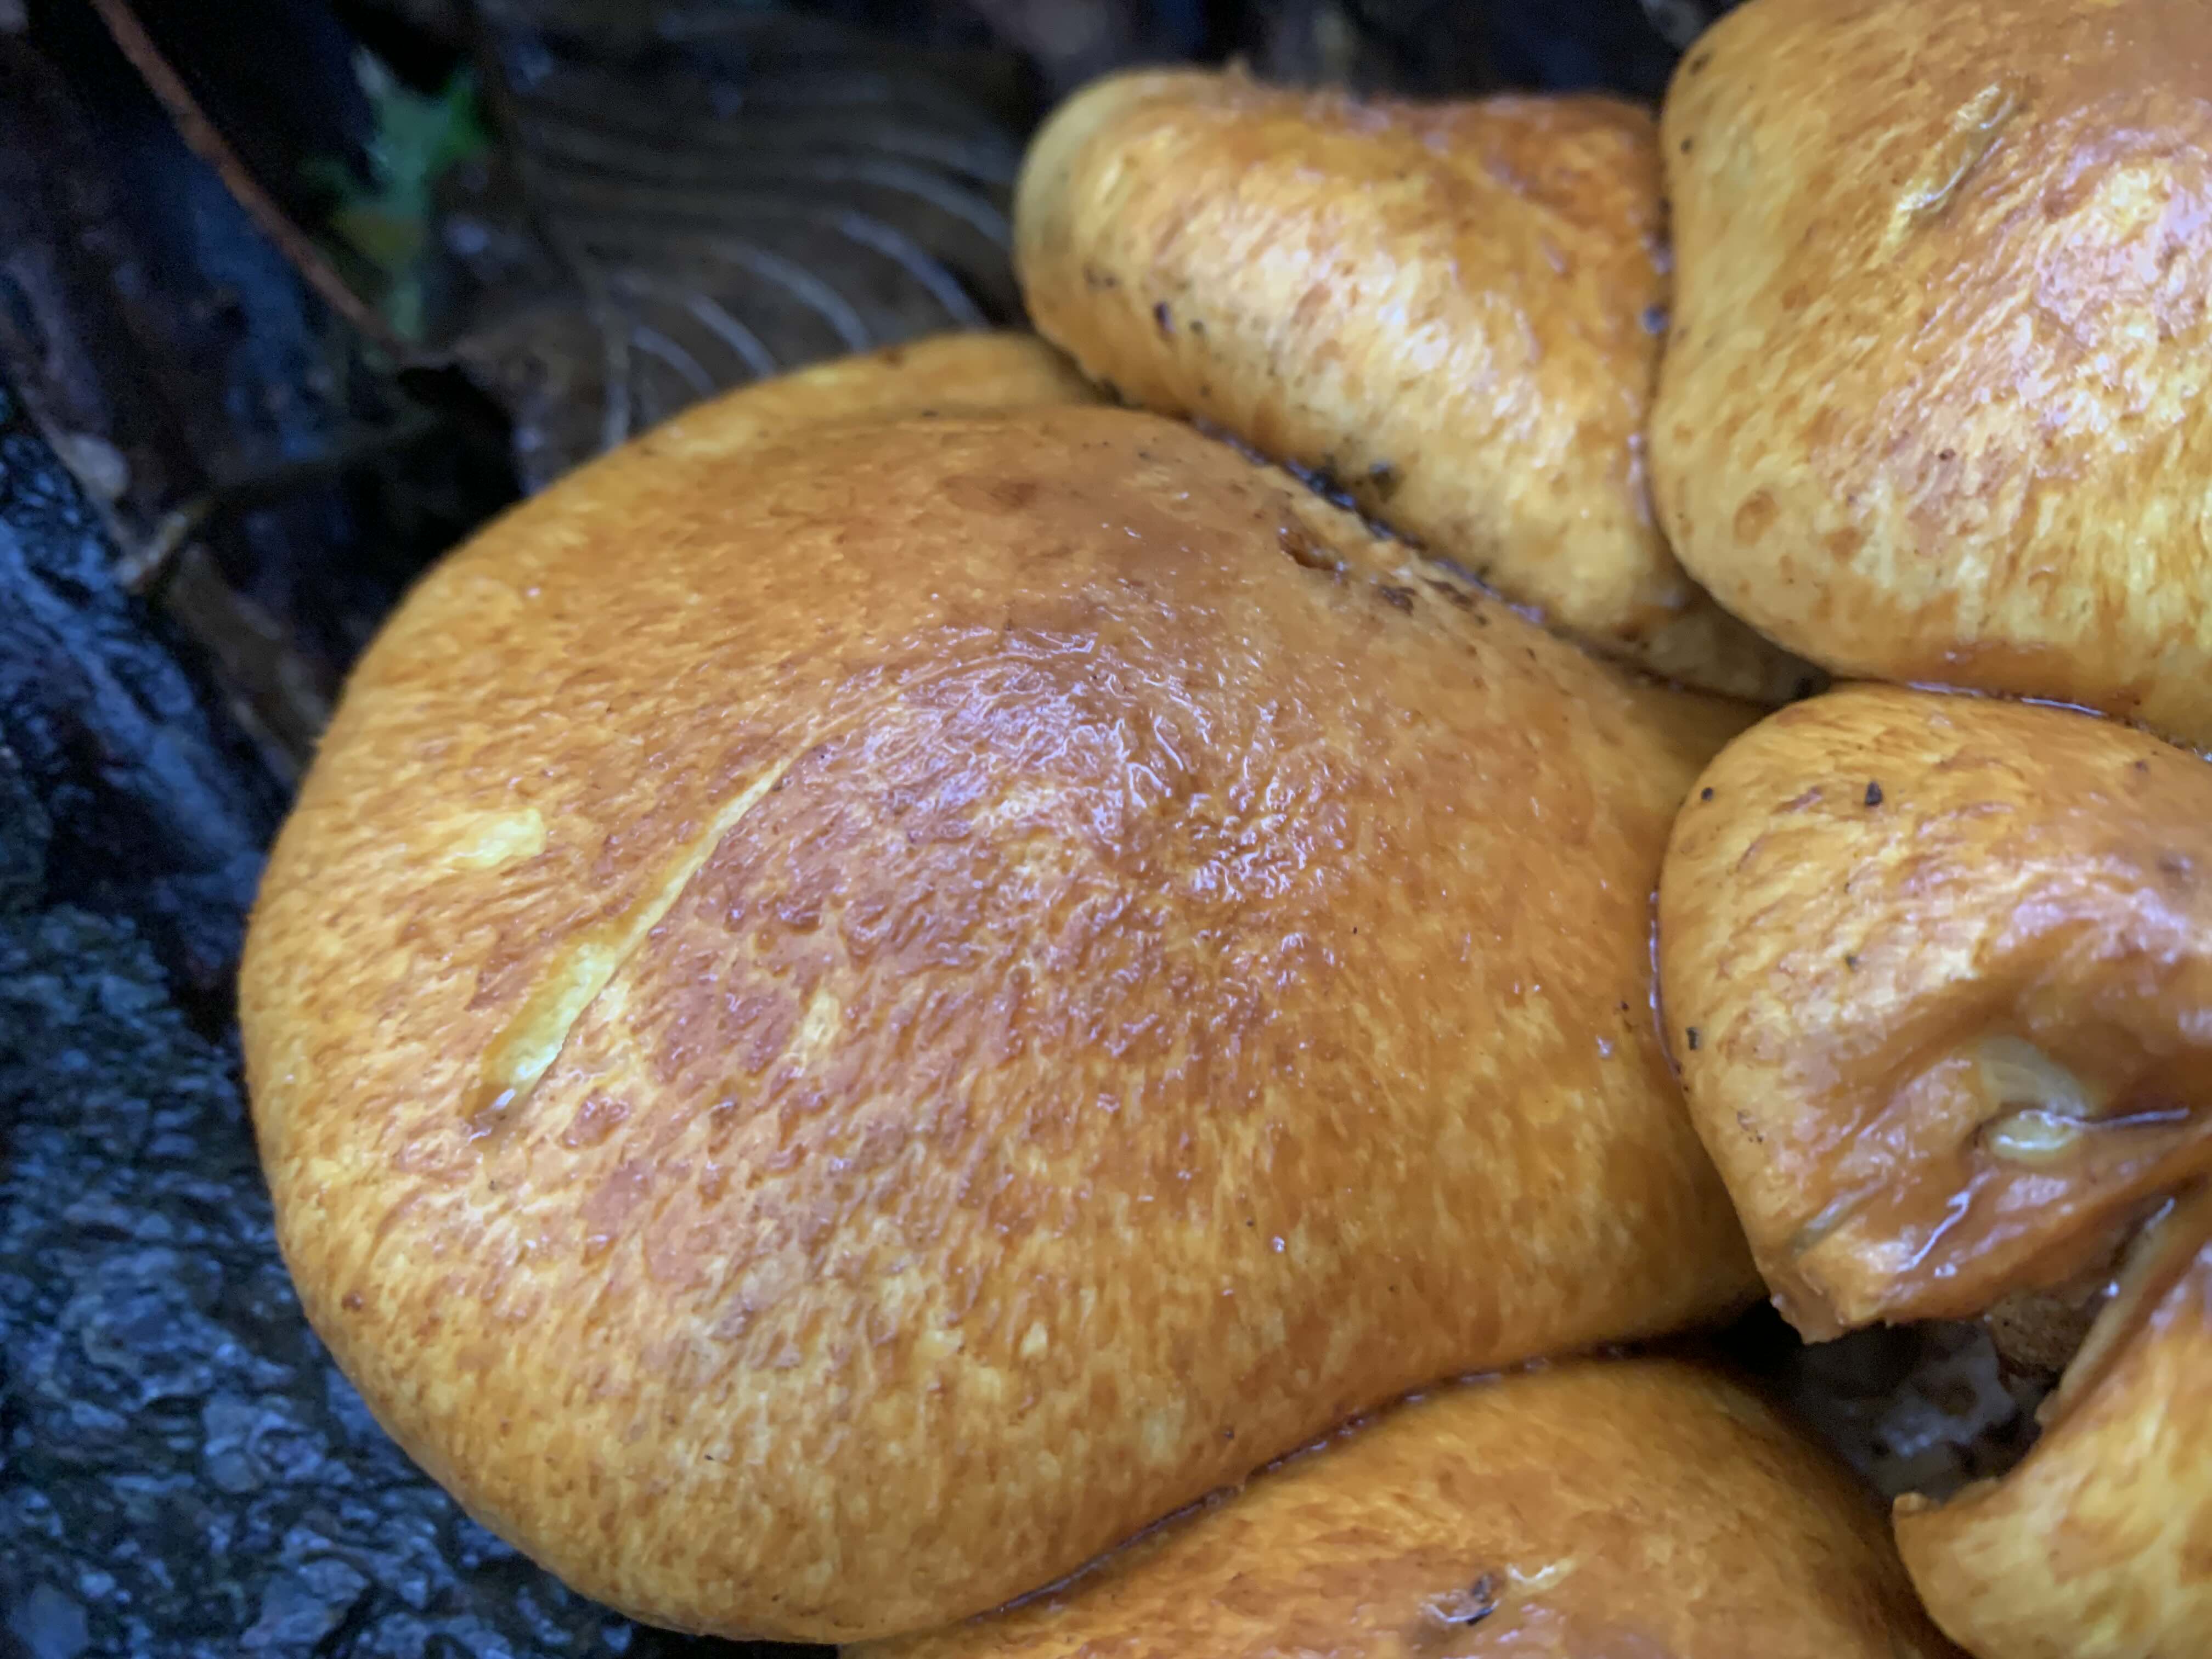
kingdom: Fungi
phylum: Basidiomycota
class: Agaricomycetes
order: Agaricales
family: Hymenogastraceae
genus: Gymnopilus
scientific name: Gymnopilus spectabilis
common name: fibret flammehat
